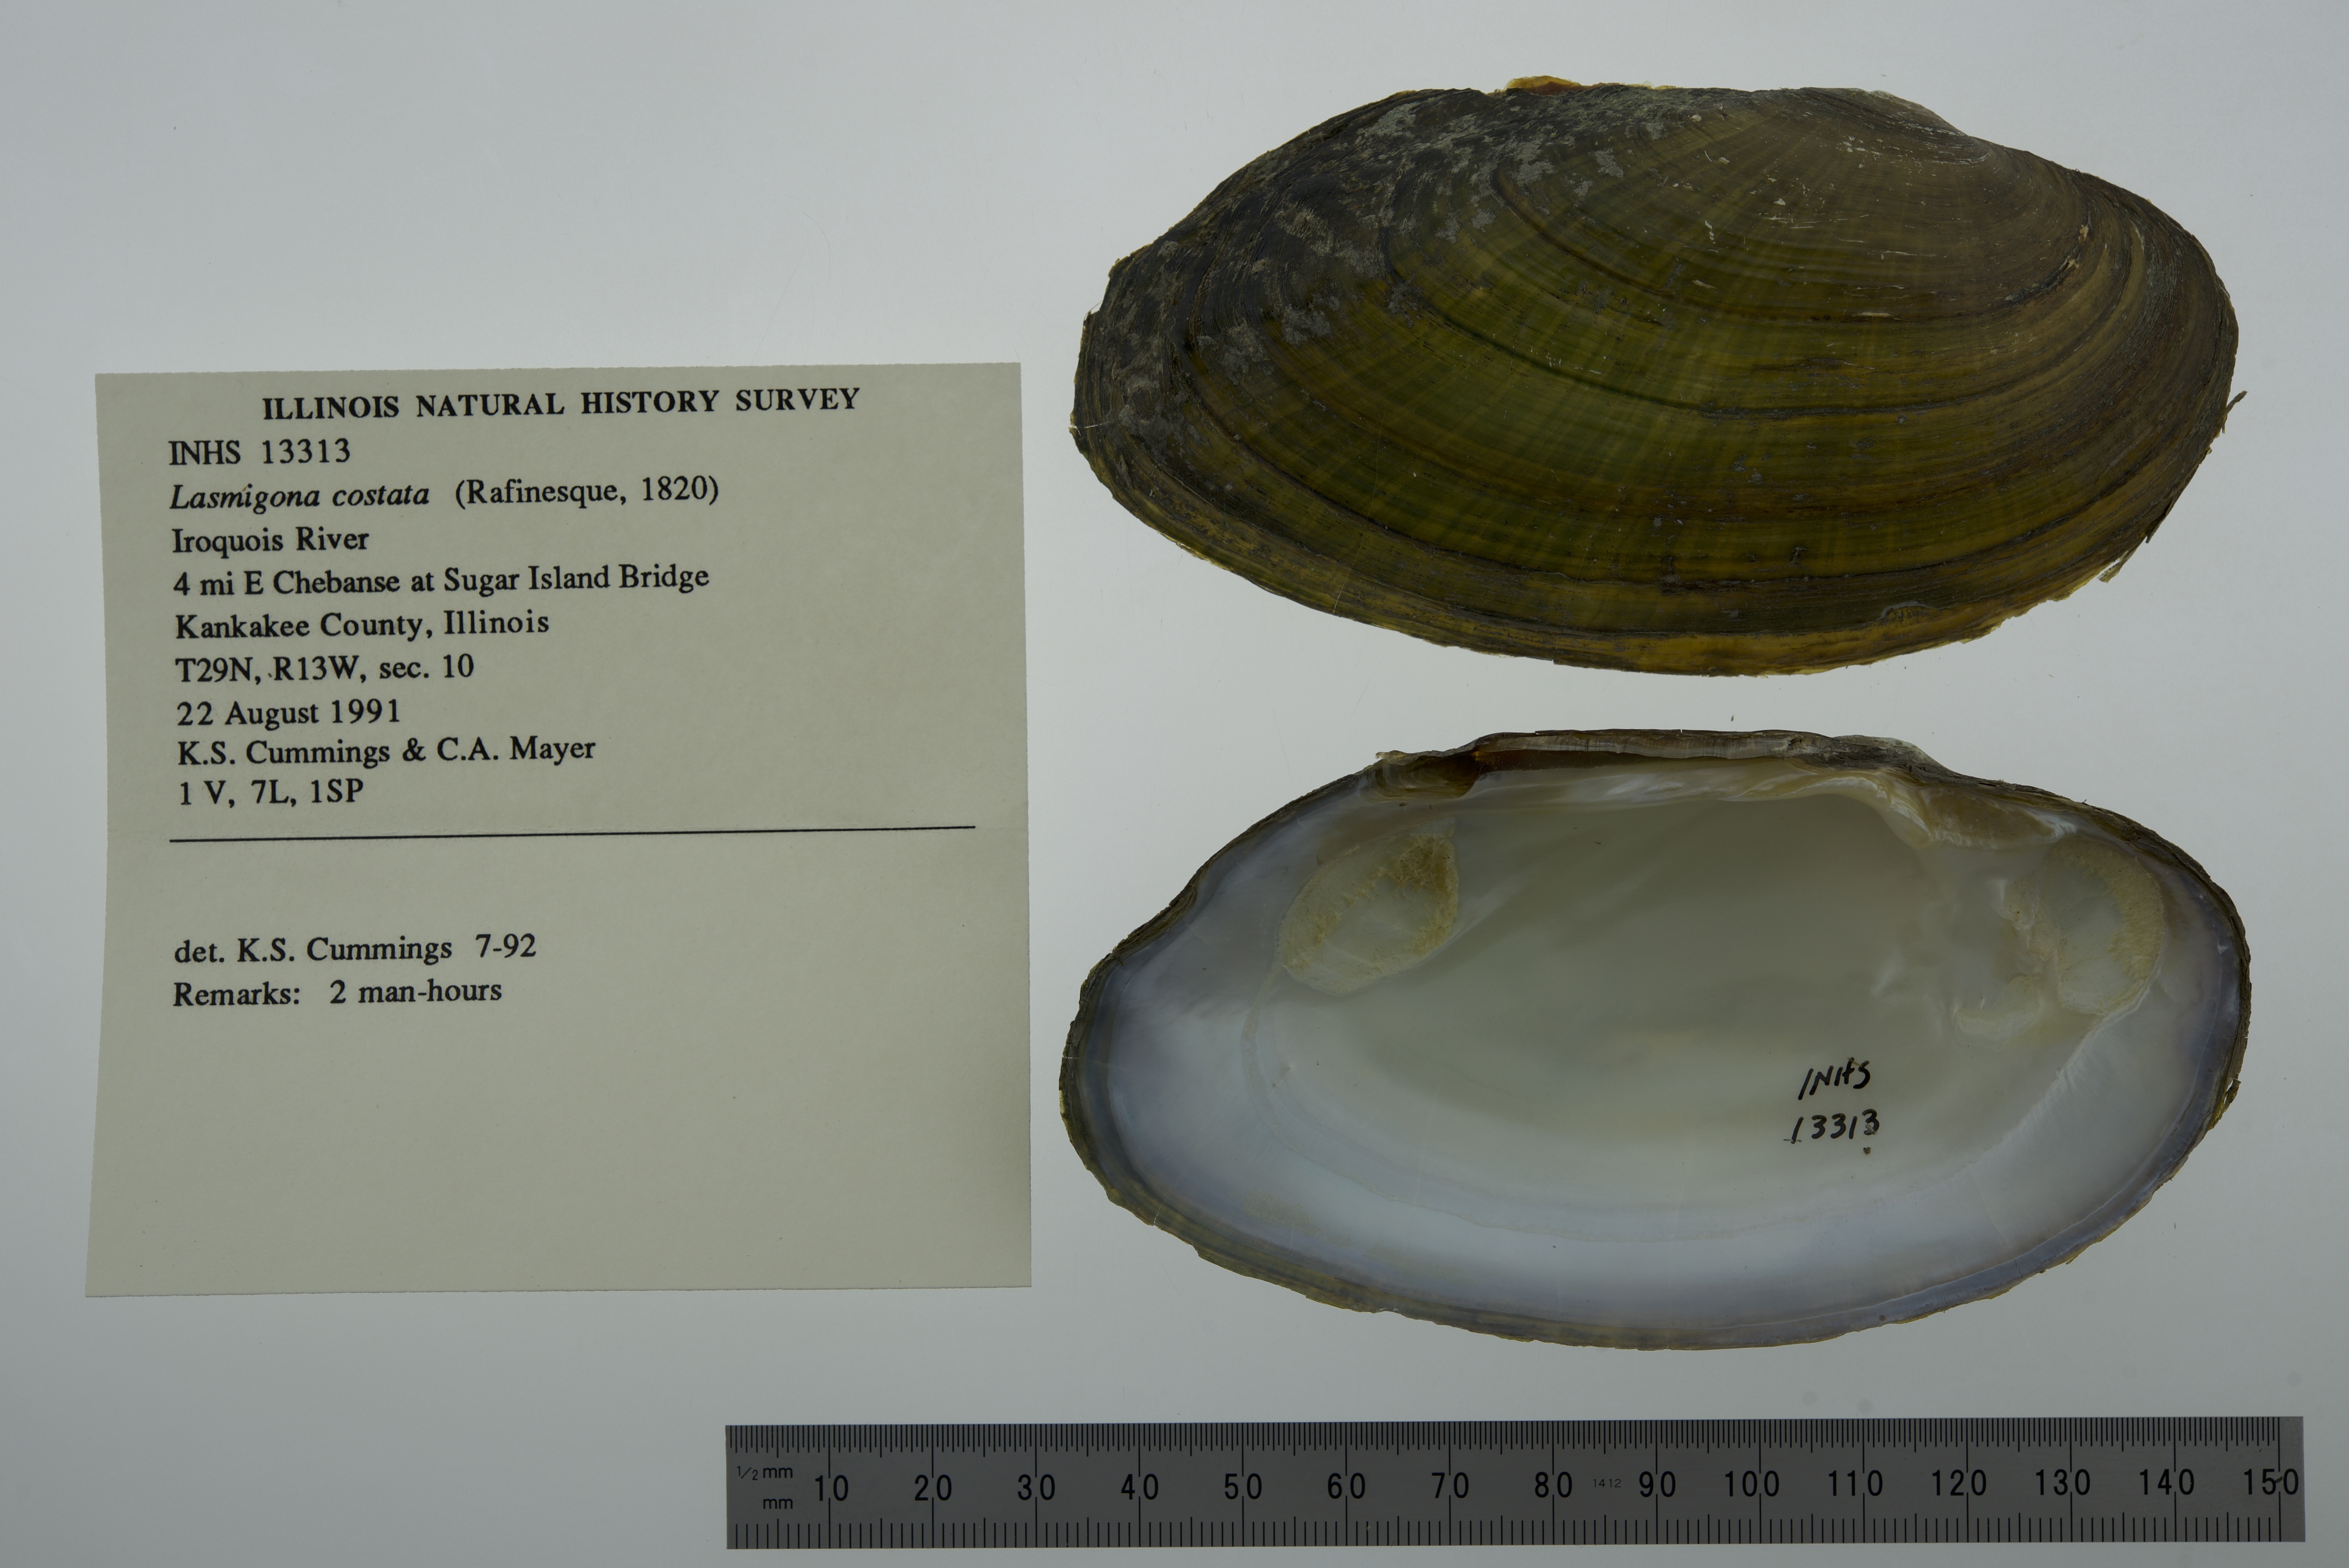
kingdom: Animalia
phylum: Mollusca
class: Bivalvia
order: Unionida
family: Unionidae
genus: Lasmigona
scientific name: Lasmigona costata
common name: Flutedshell
